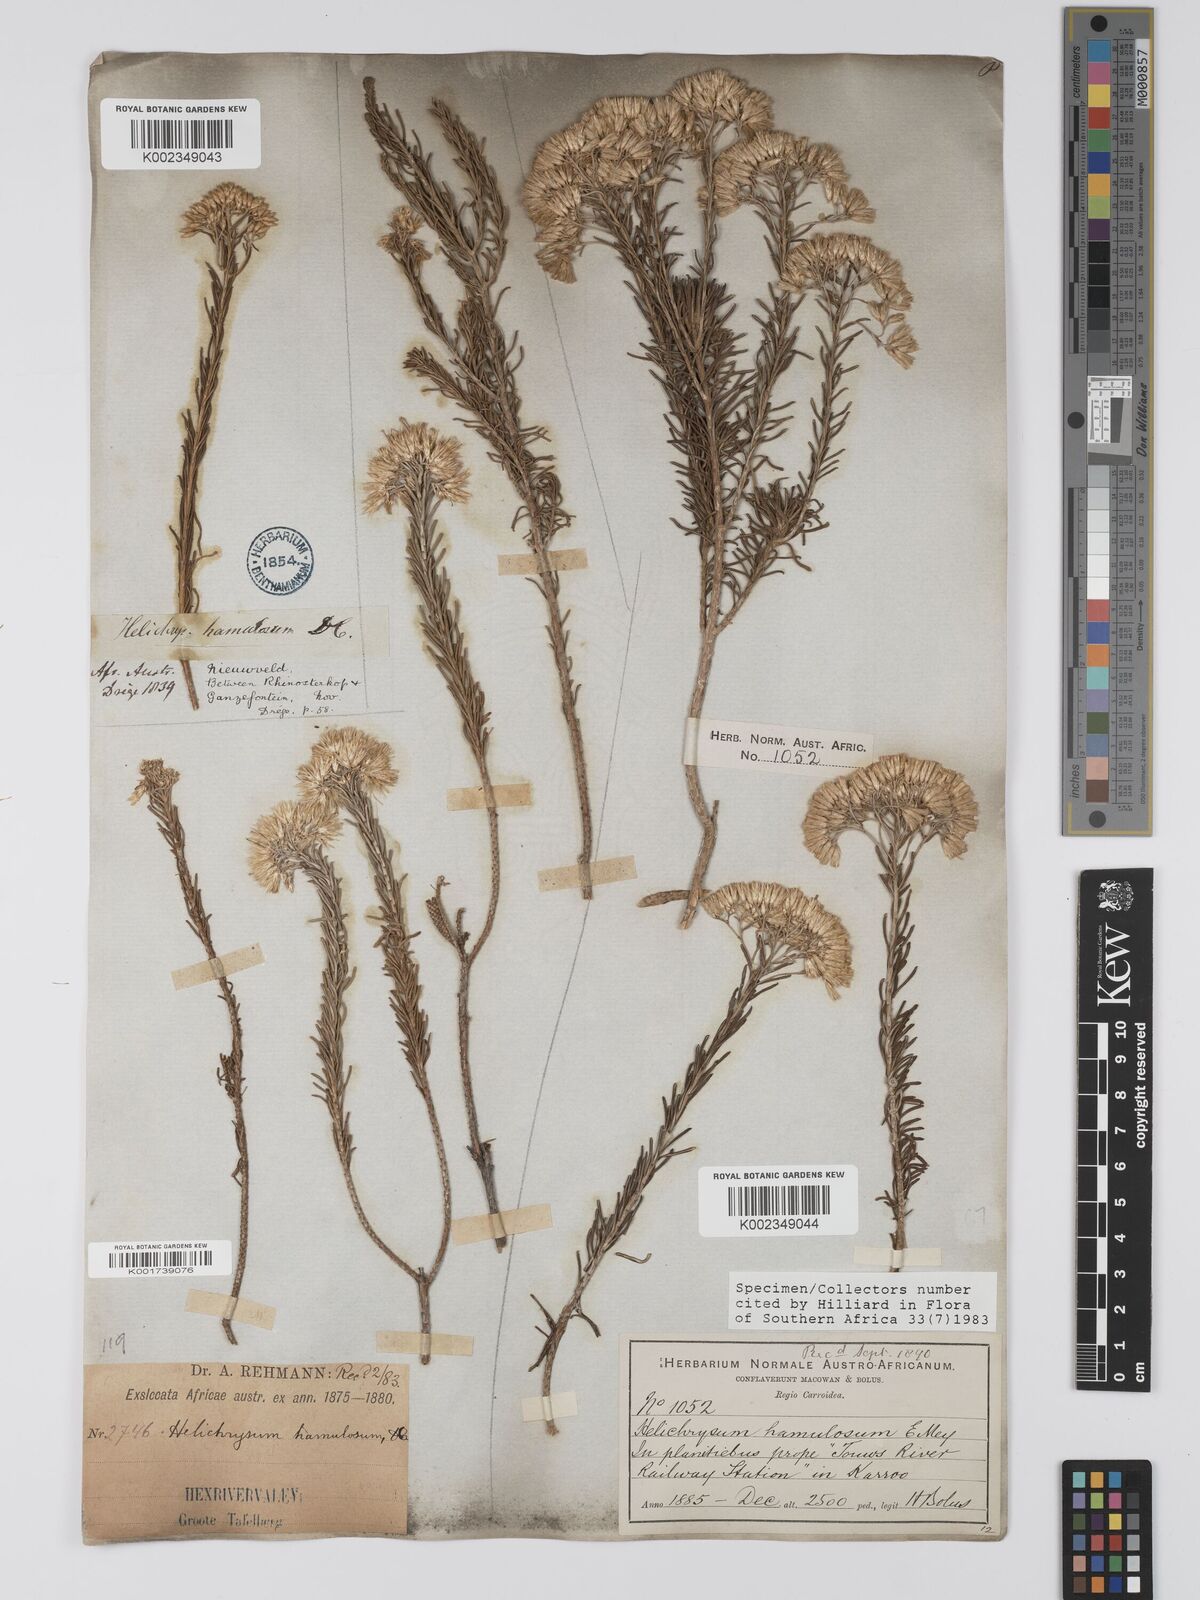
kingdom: Plantae
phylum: Tracheophyta
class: Magnoliopsida
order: Asterales
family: Asteraceae
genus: Helichrysum
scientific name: Helichrysum hamulosum
